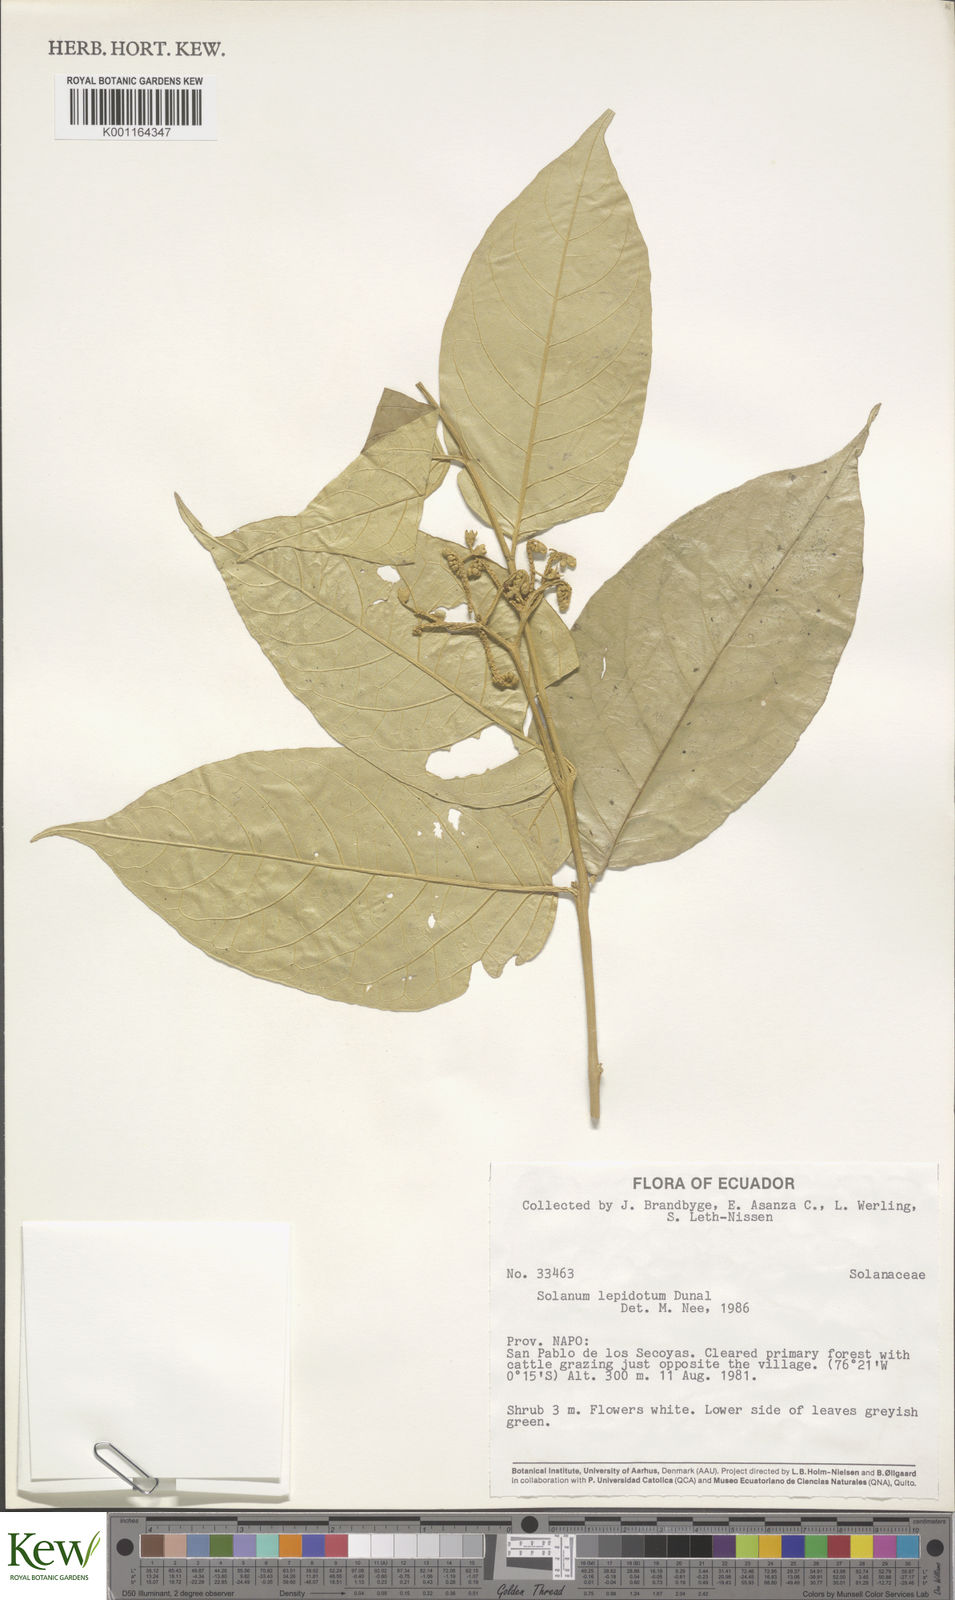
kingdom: Plantae
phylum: Tracheophyta
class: Magnoliopsida
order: Solanales
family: Solanaceae
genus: Solanum
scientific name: Solanum lepidotum
